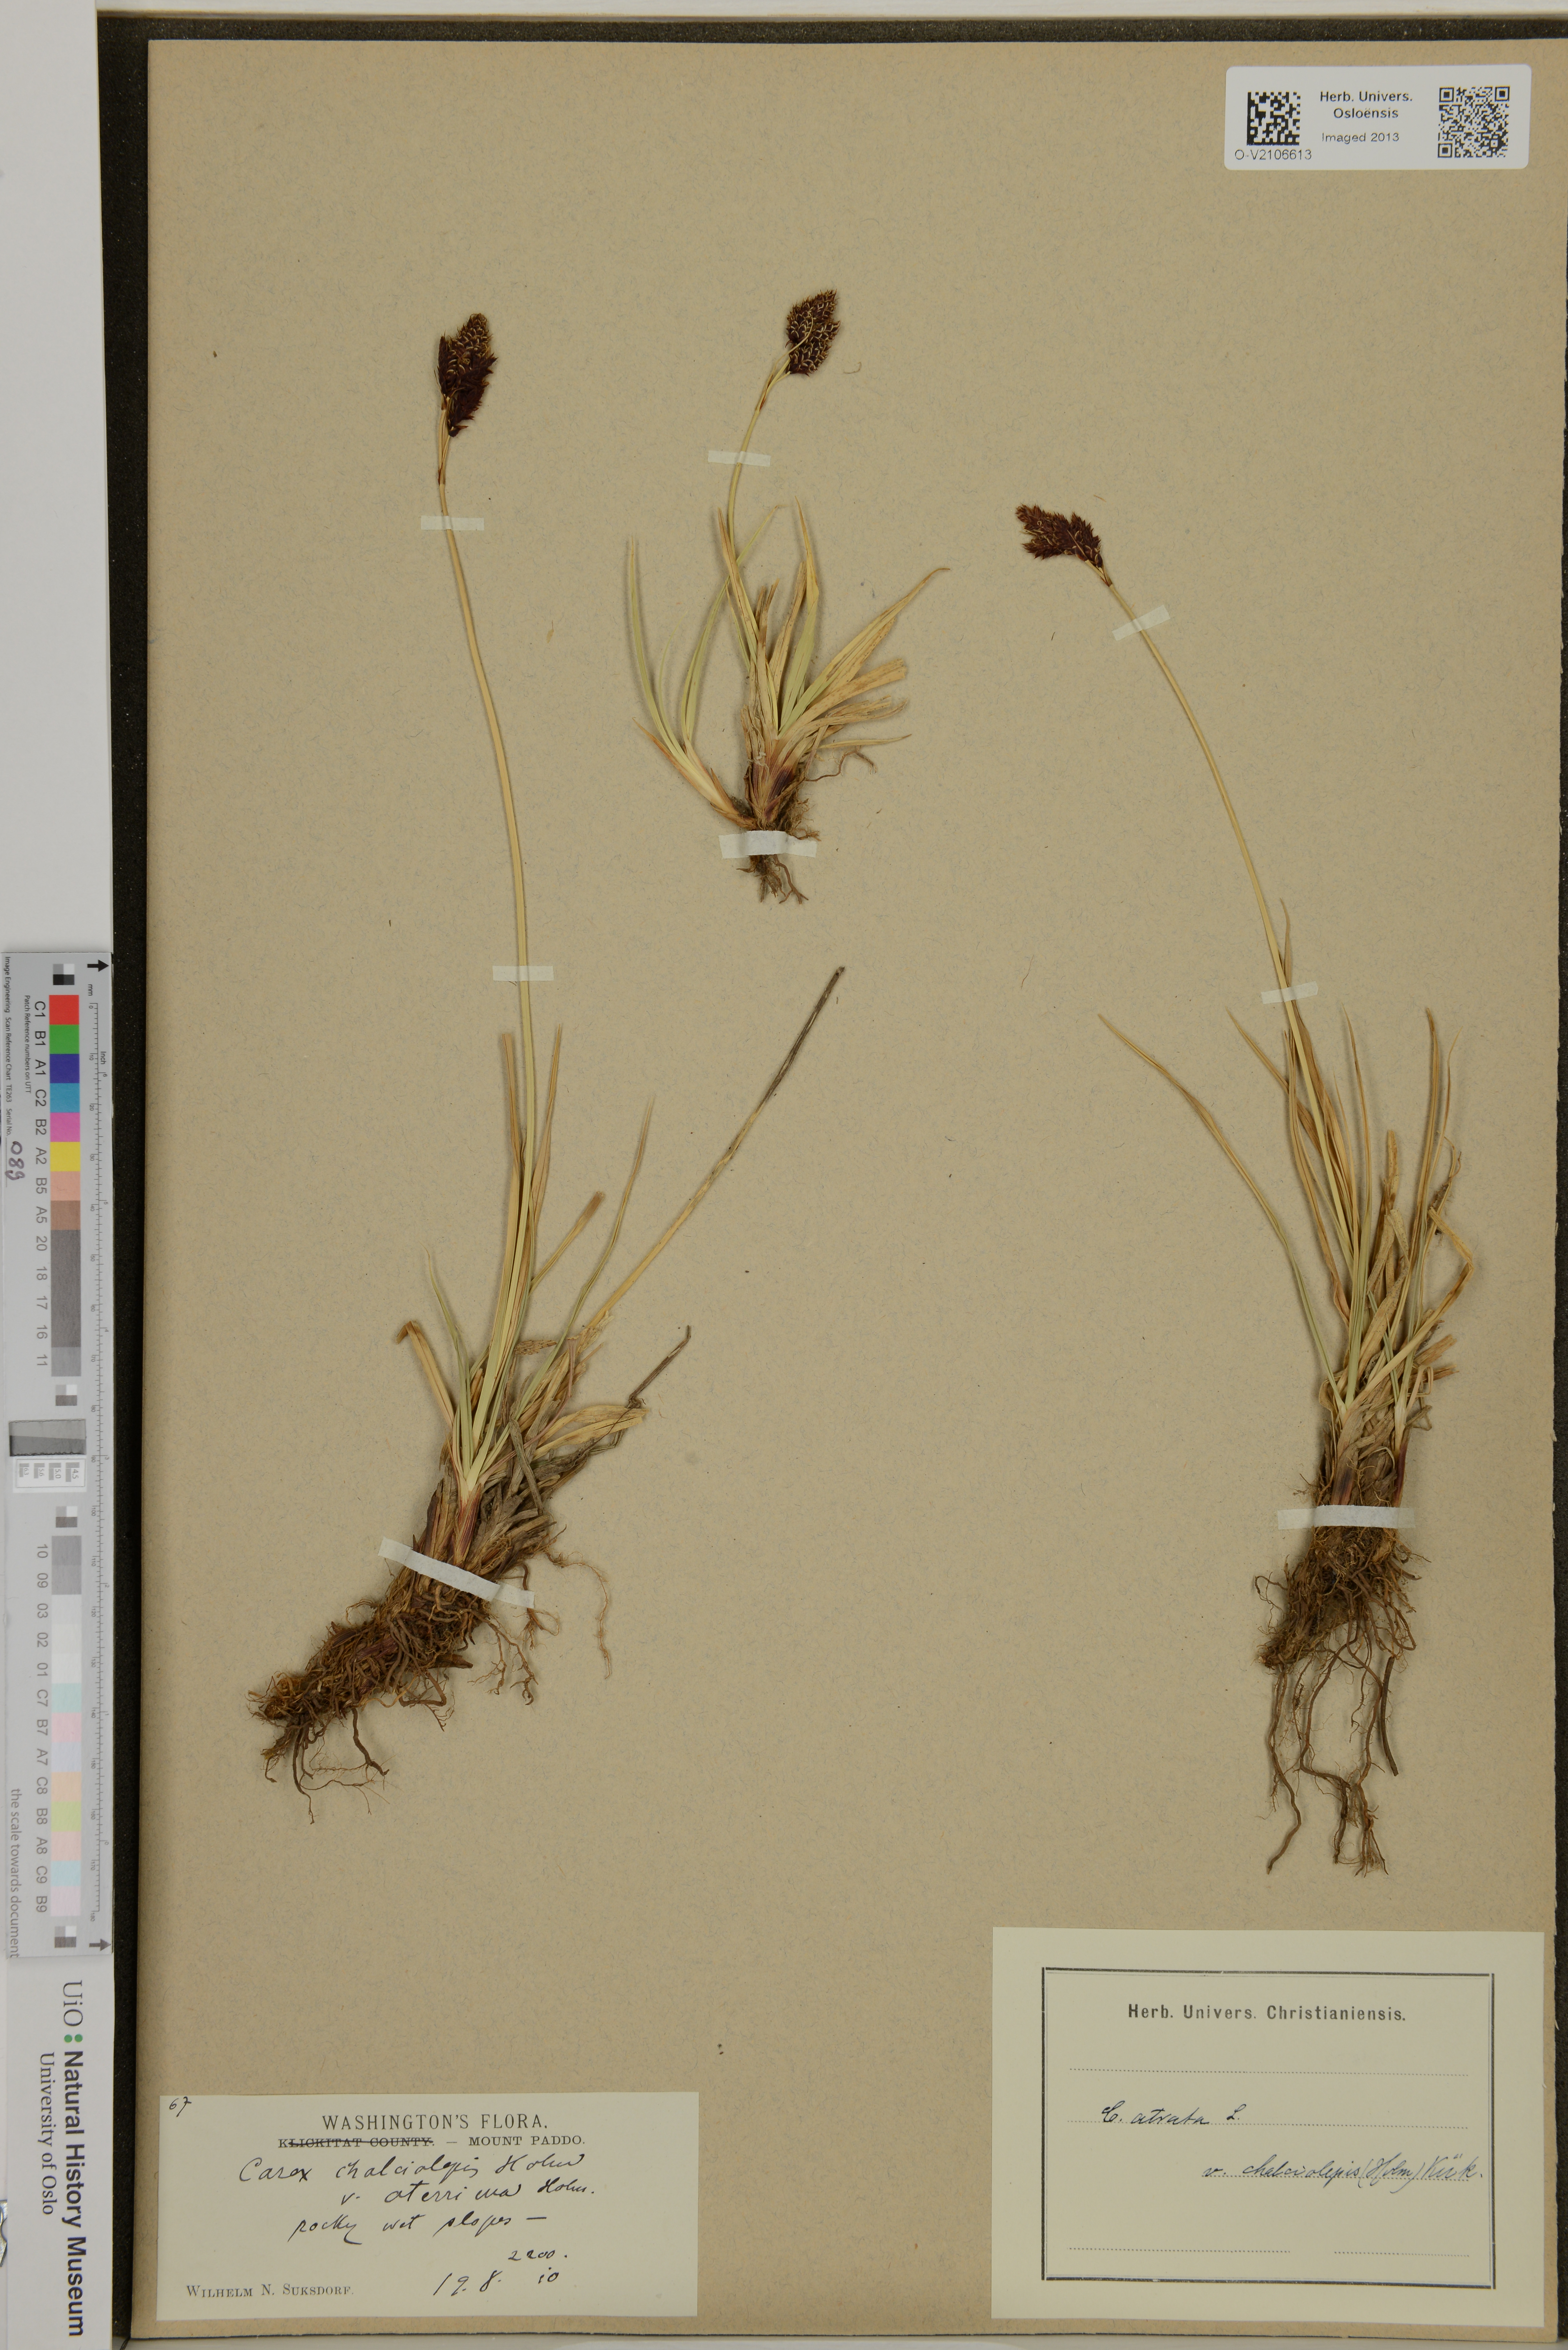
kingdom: Plantae
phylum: Tracheophyta
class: Liliopsida
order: Poales
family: Cyperaceae
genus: Carex
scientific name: Carex atrata
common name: Black alpine sedge
